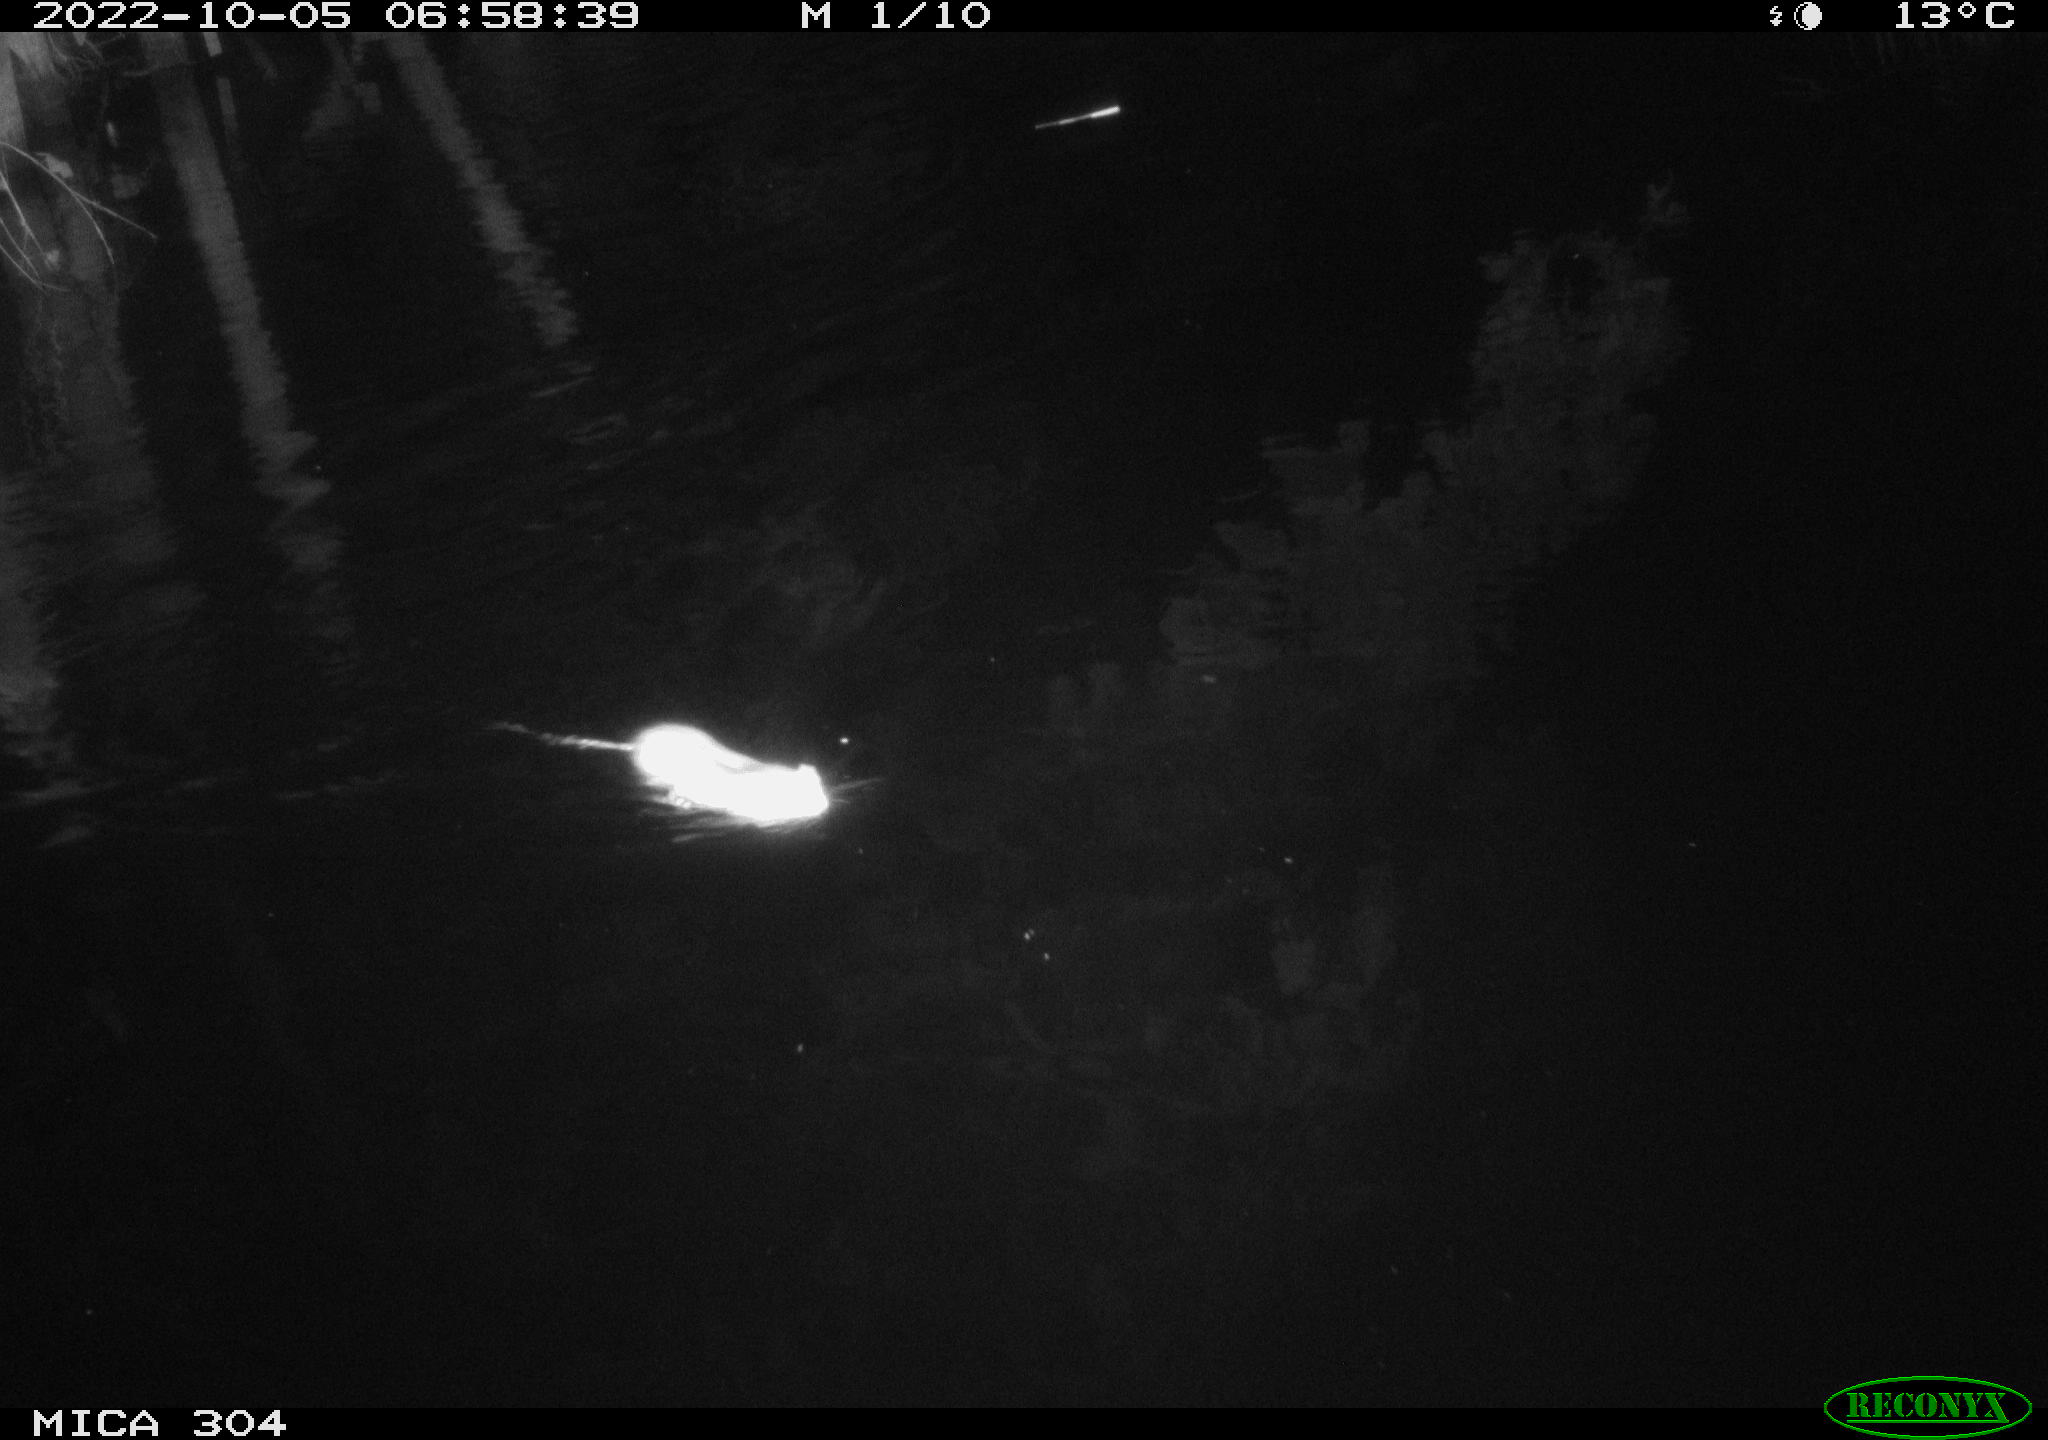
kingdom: Animalia
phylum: Chordata
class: Mammalia
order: Rodentia
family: Muridae
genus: Rattus
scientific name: Rattus norvegicus
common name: Brown rat
